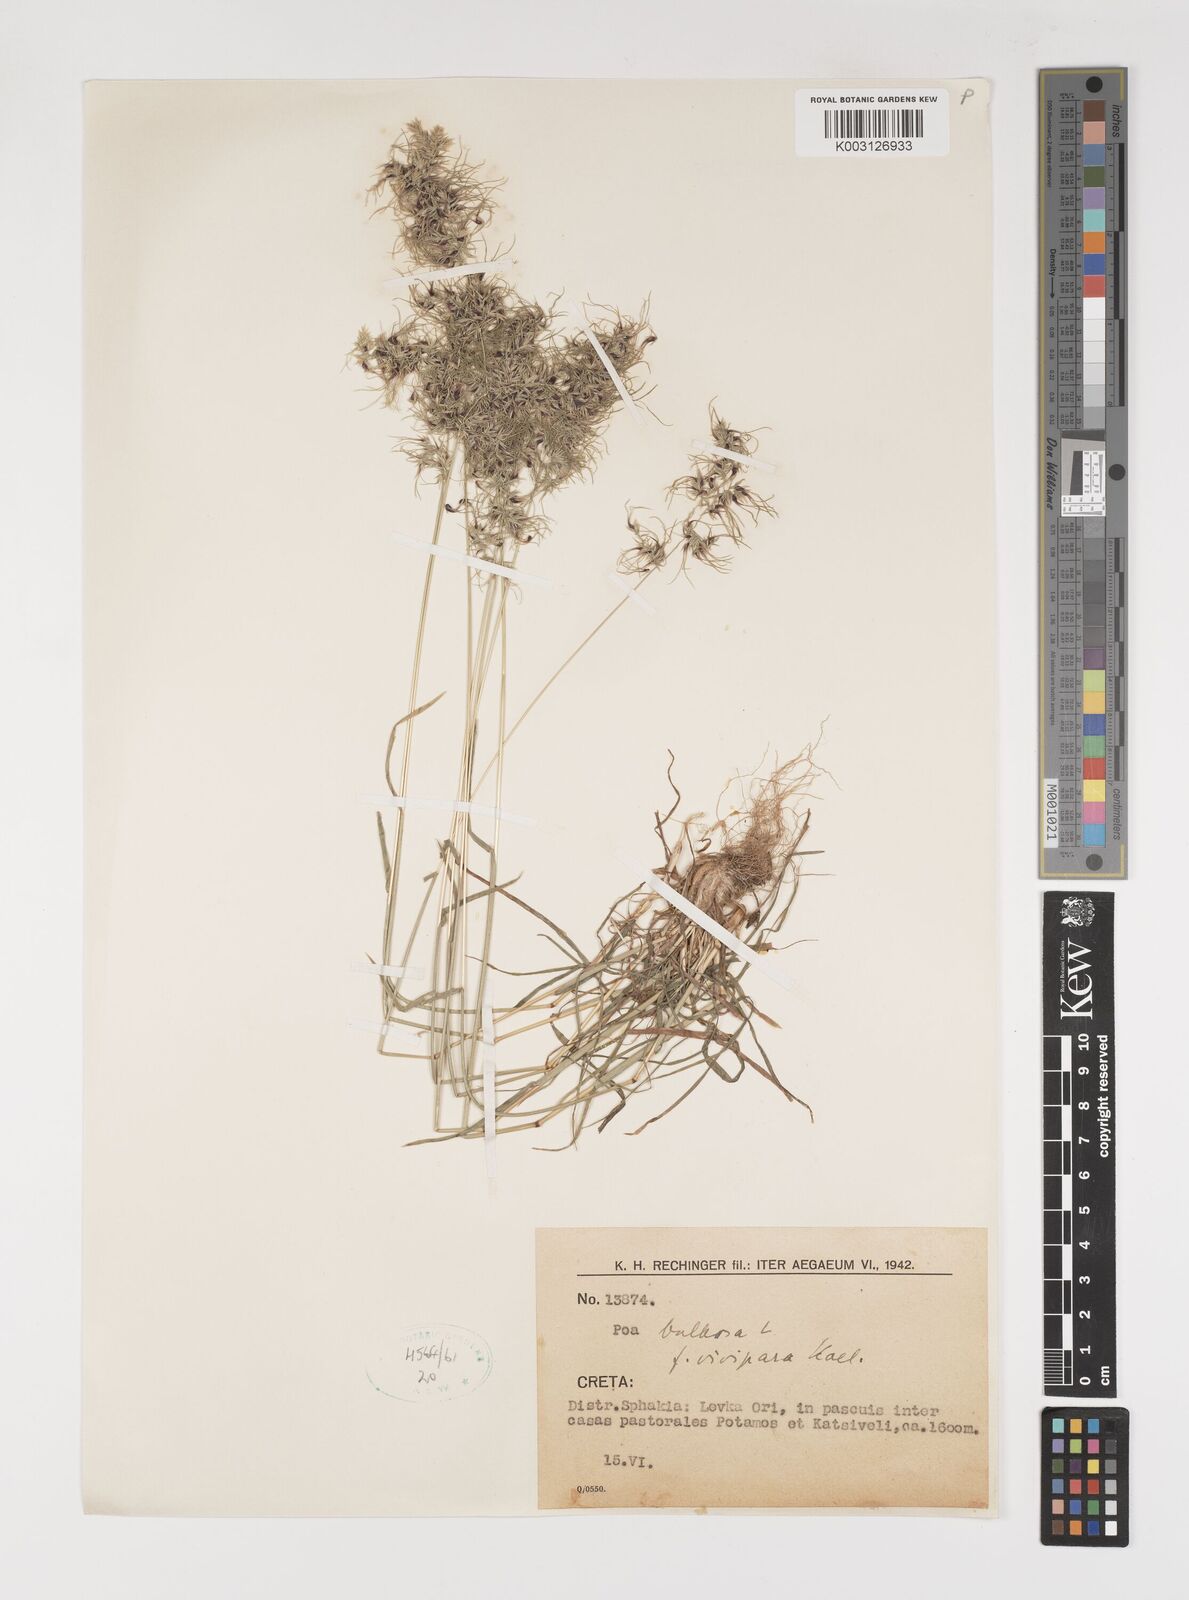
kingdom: Plantae
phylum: Tracheophyta
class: Liliopsida
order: Poales
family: Poaceae
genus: Poa
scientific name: Poa bulbosa
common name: Bulbous bluegrass
